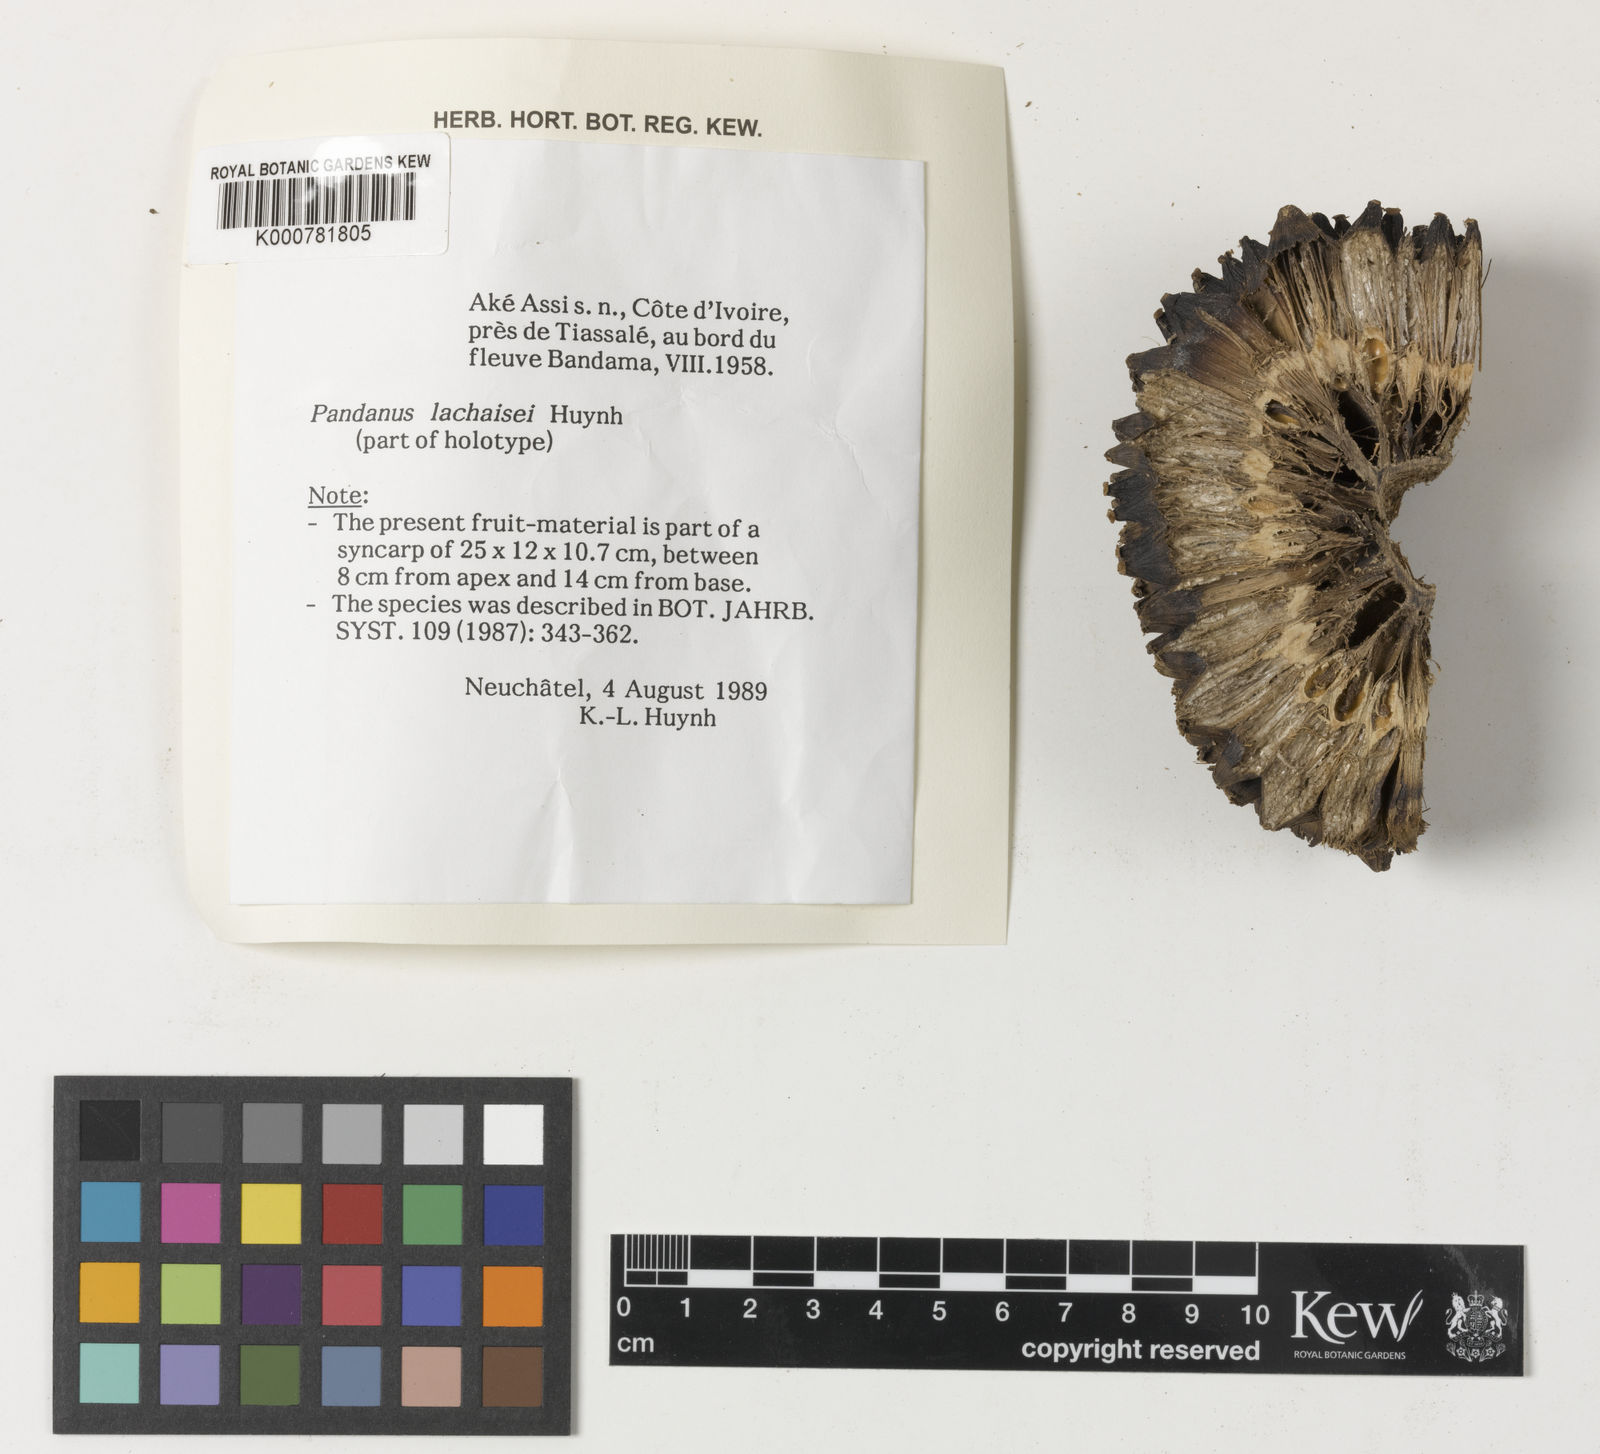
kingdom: Plantae
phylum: Tracheophyta
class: Liliopsida
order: Pandanales
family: Pandanaceae
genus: Pandanus
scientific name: Pandanus lachaisei
